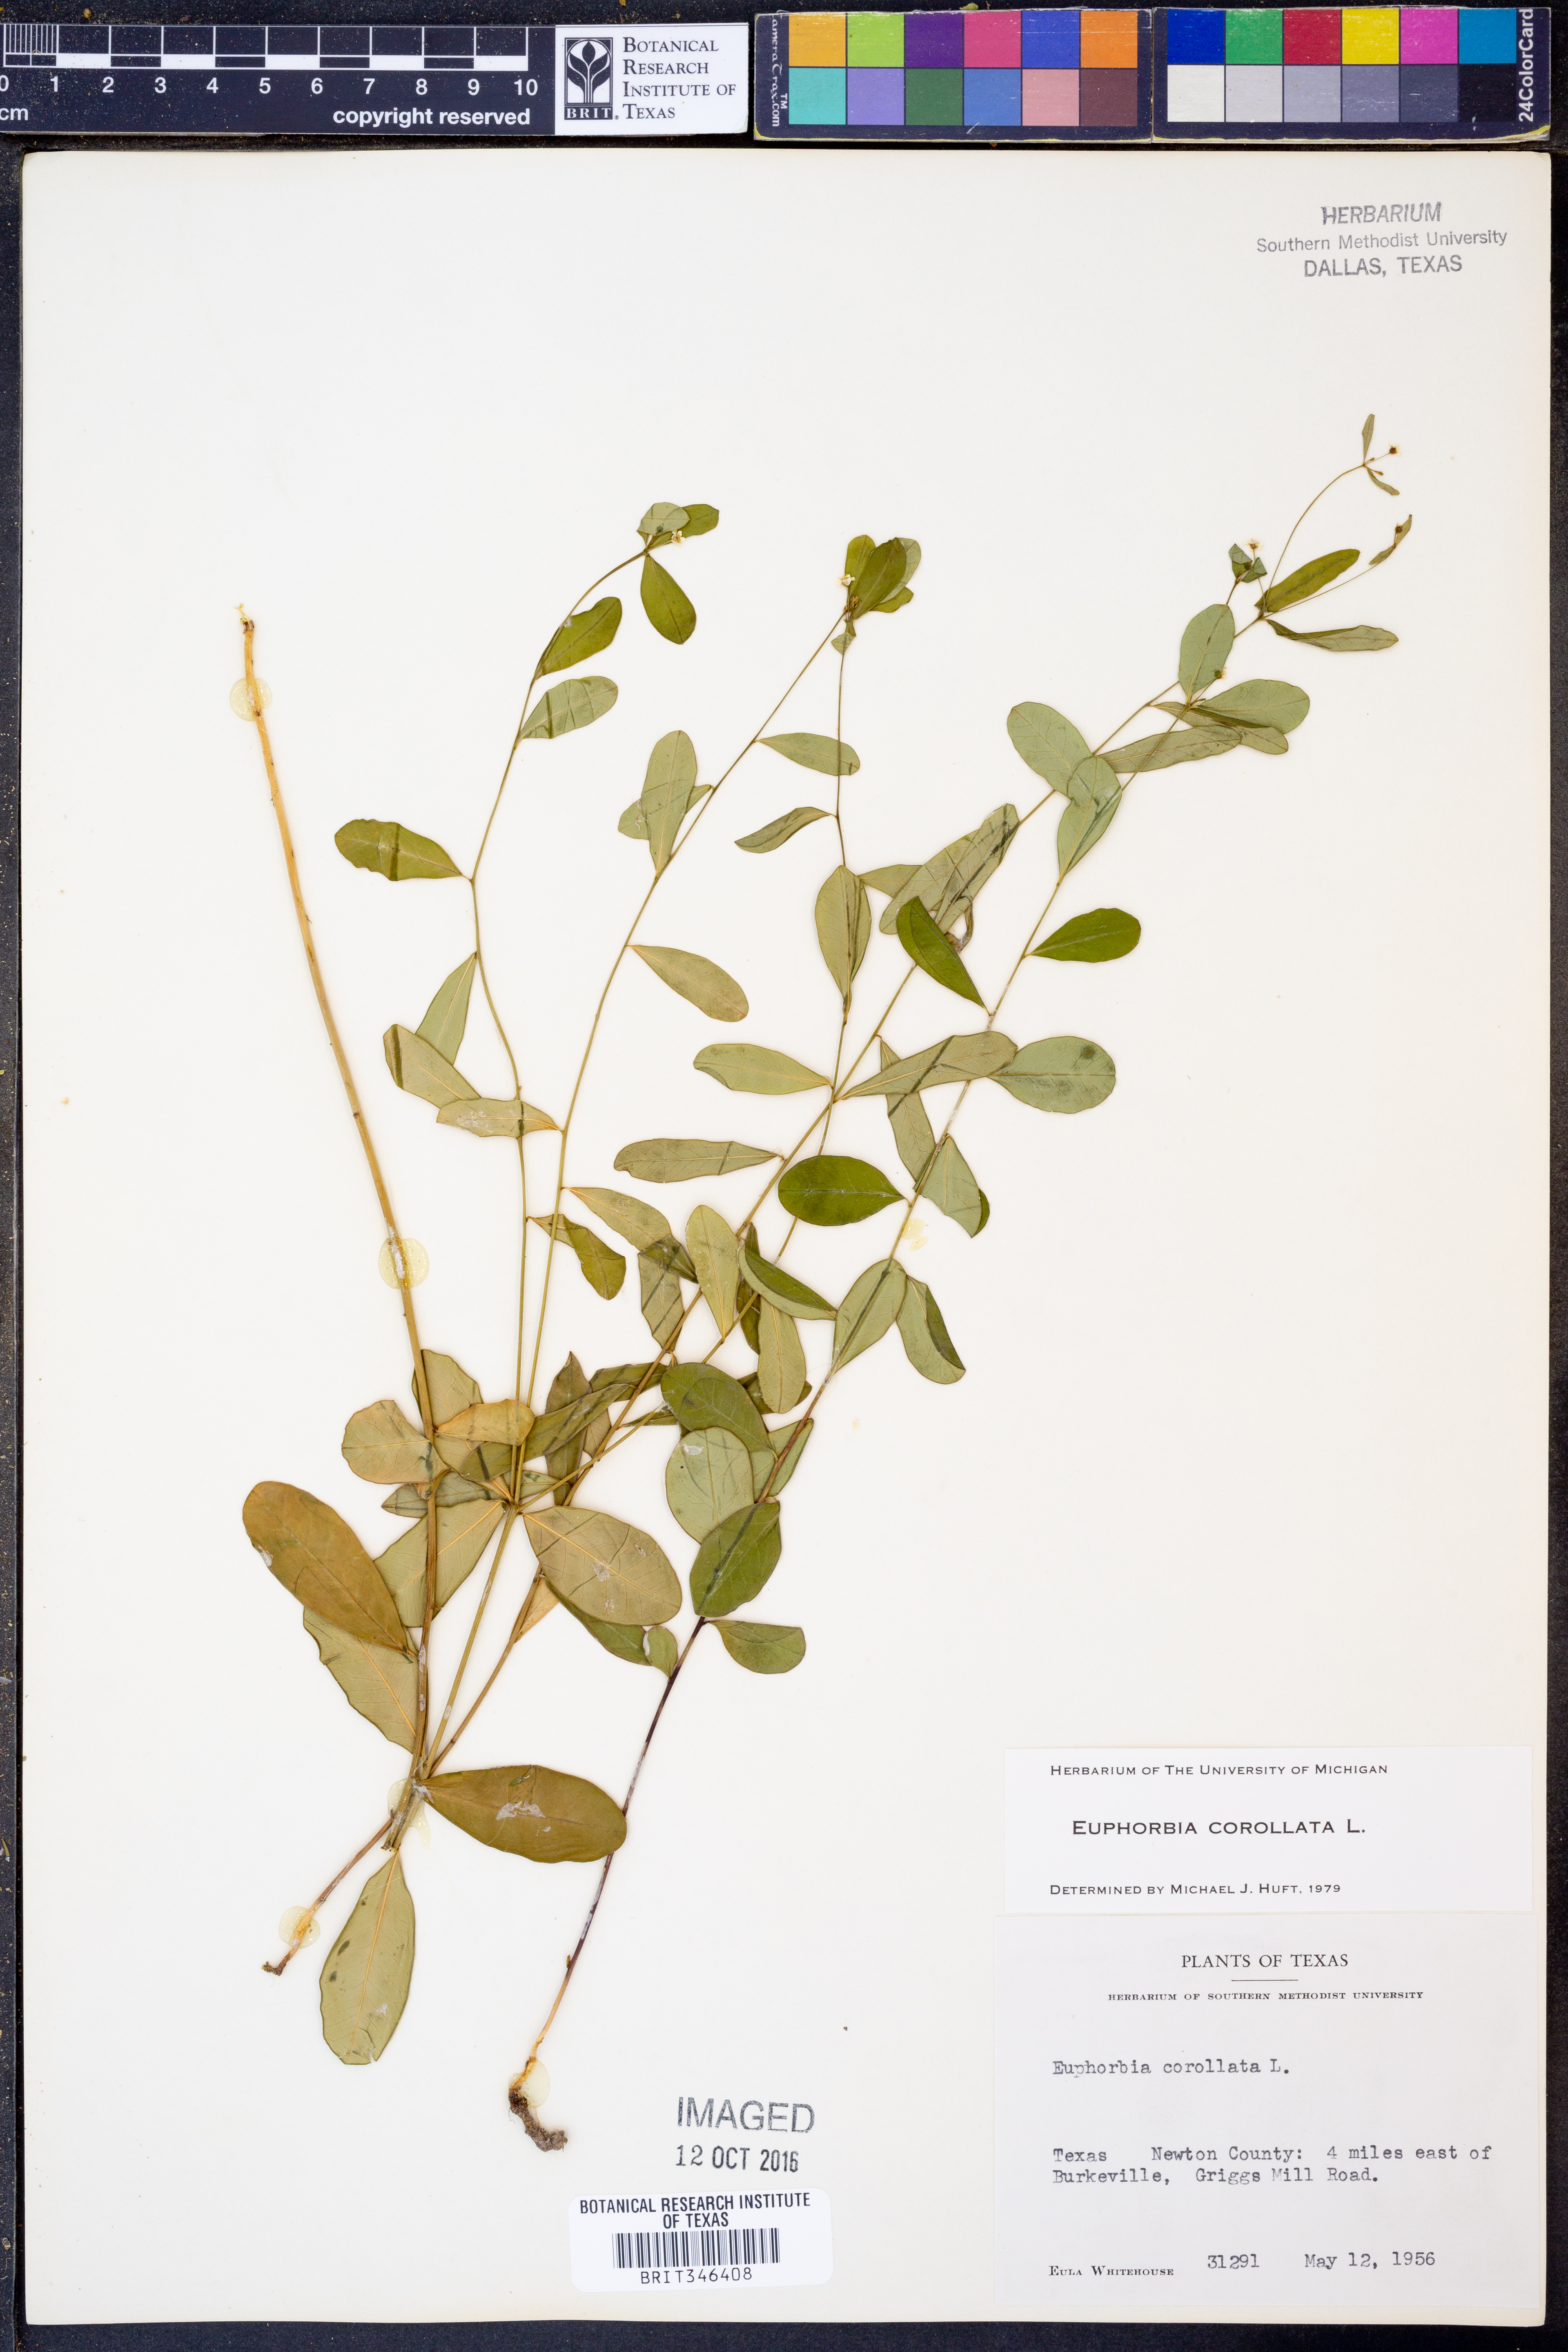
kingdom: Plantae
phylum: Tracheophyta
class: Magnoliopsida
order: Malpighiales
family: Euphorbiaceae
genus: Euphorbia
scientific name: Euphorbia corollata
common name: Flowering spurge
